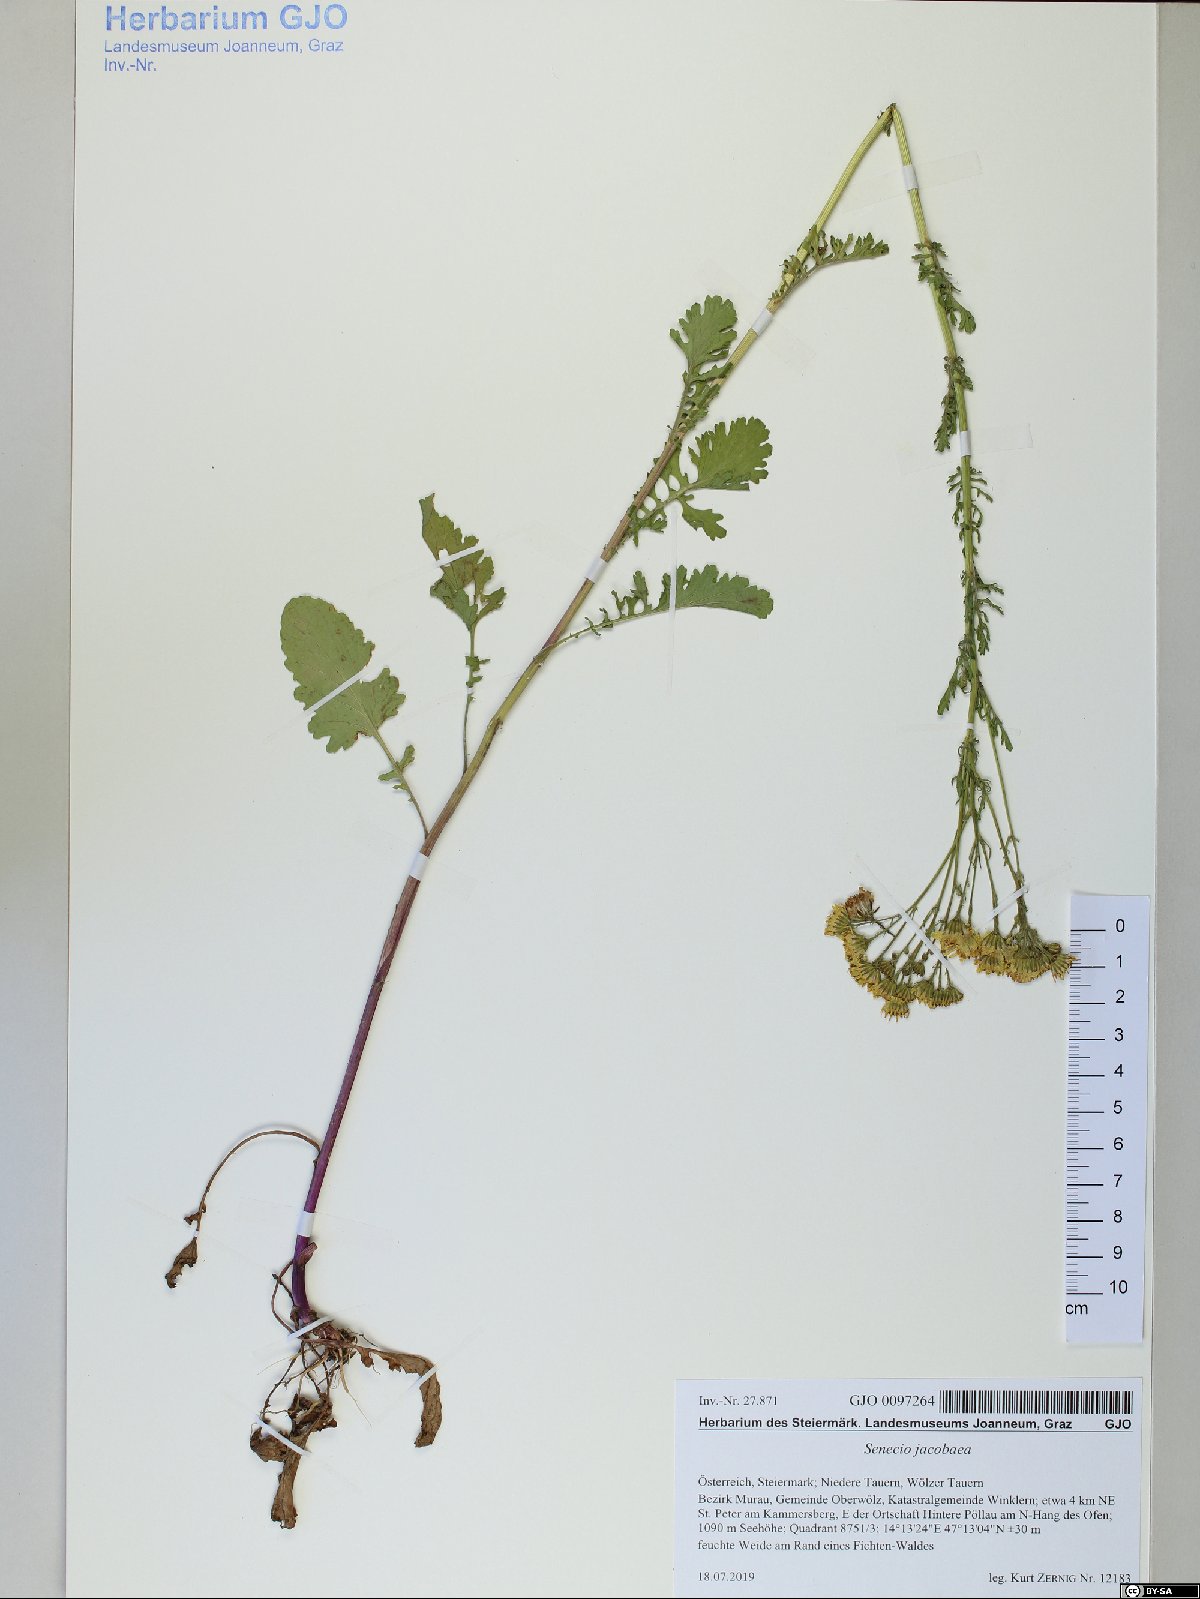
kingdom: Plantae
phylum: Tracheophyta
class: Magnoliopsida
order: Asterales
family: Asteraceae
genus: Jacobaea
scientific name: Jacobaea vulgaris
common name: Stinking willie
